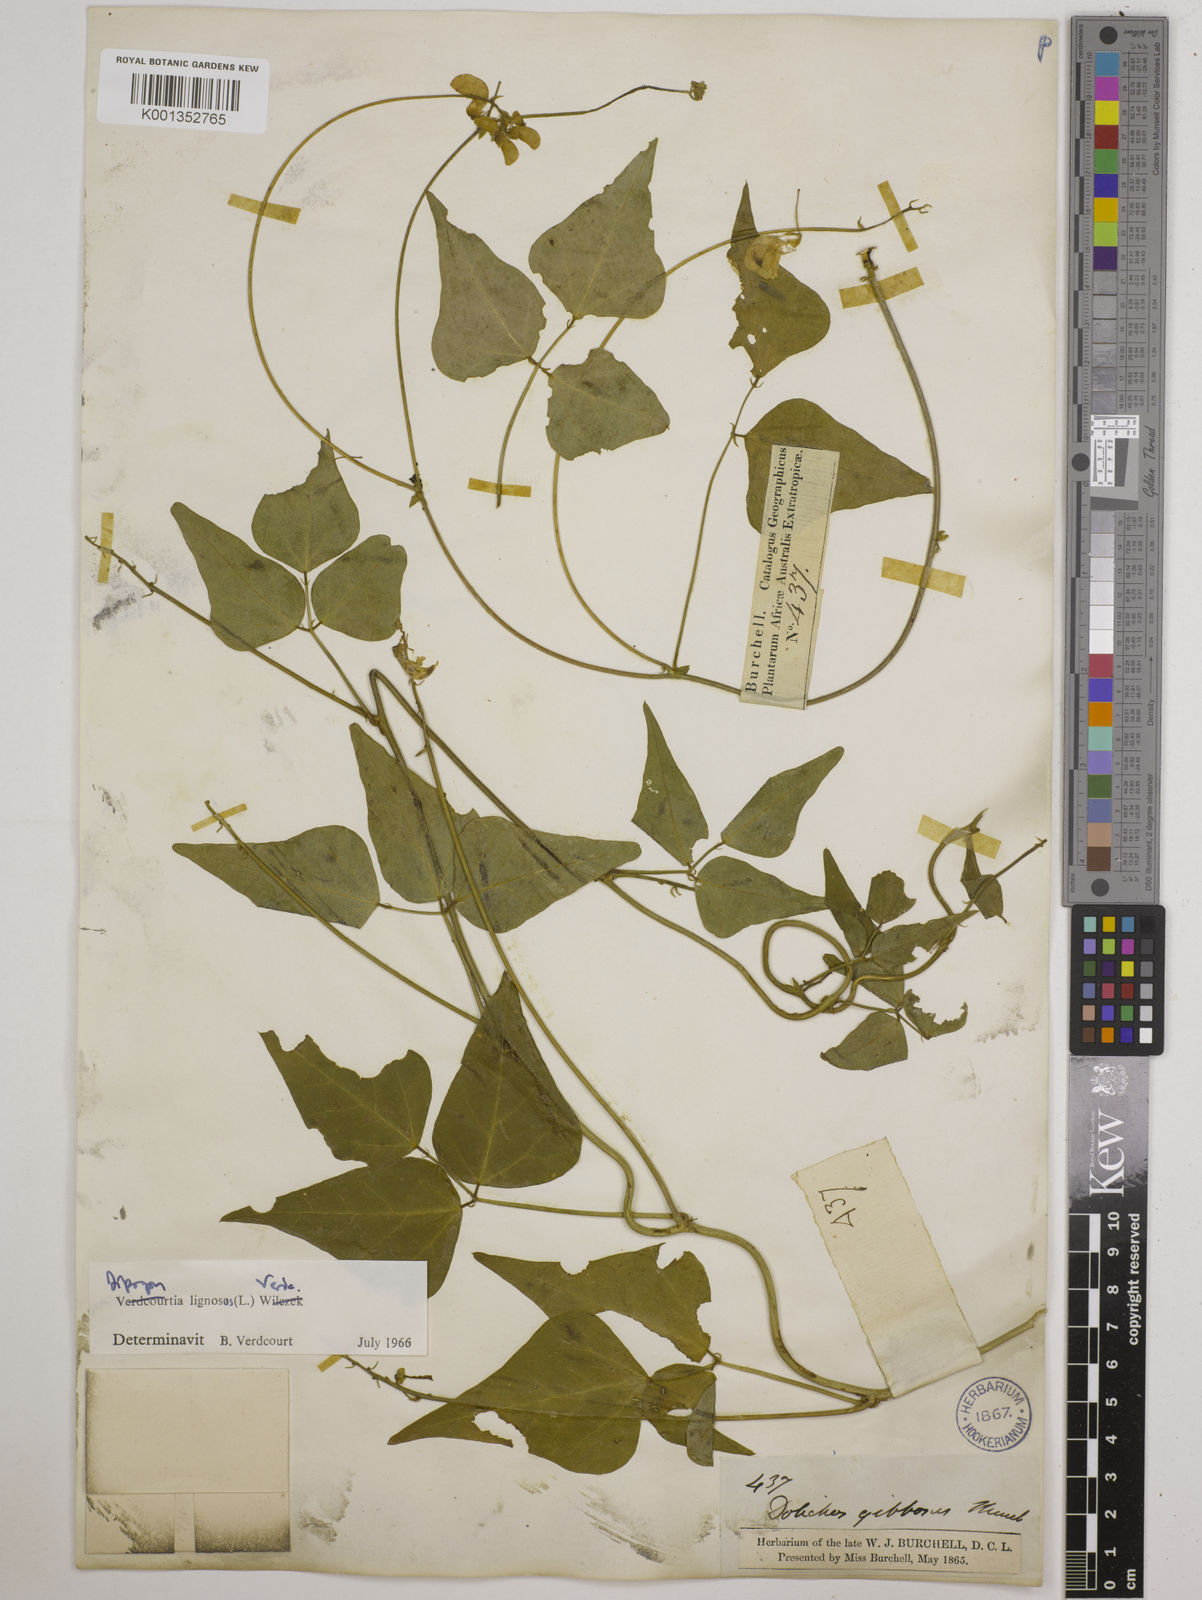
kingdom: Plantae
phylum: Tracheophyta
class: Magnoliopsida
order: Fabales
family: Fabaceae
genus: Dipogon
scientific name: Dipogon lignosus
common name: Okie bean
